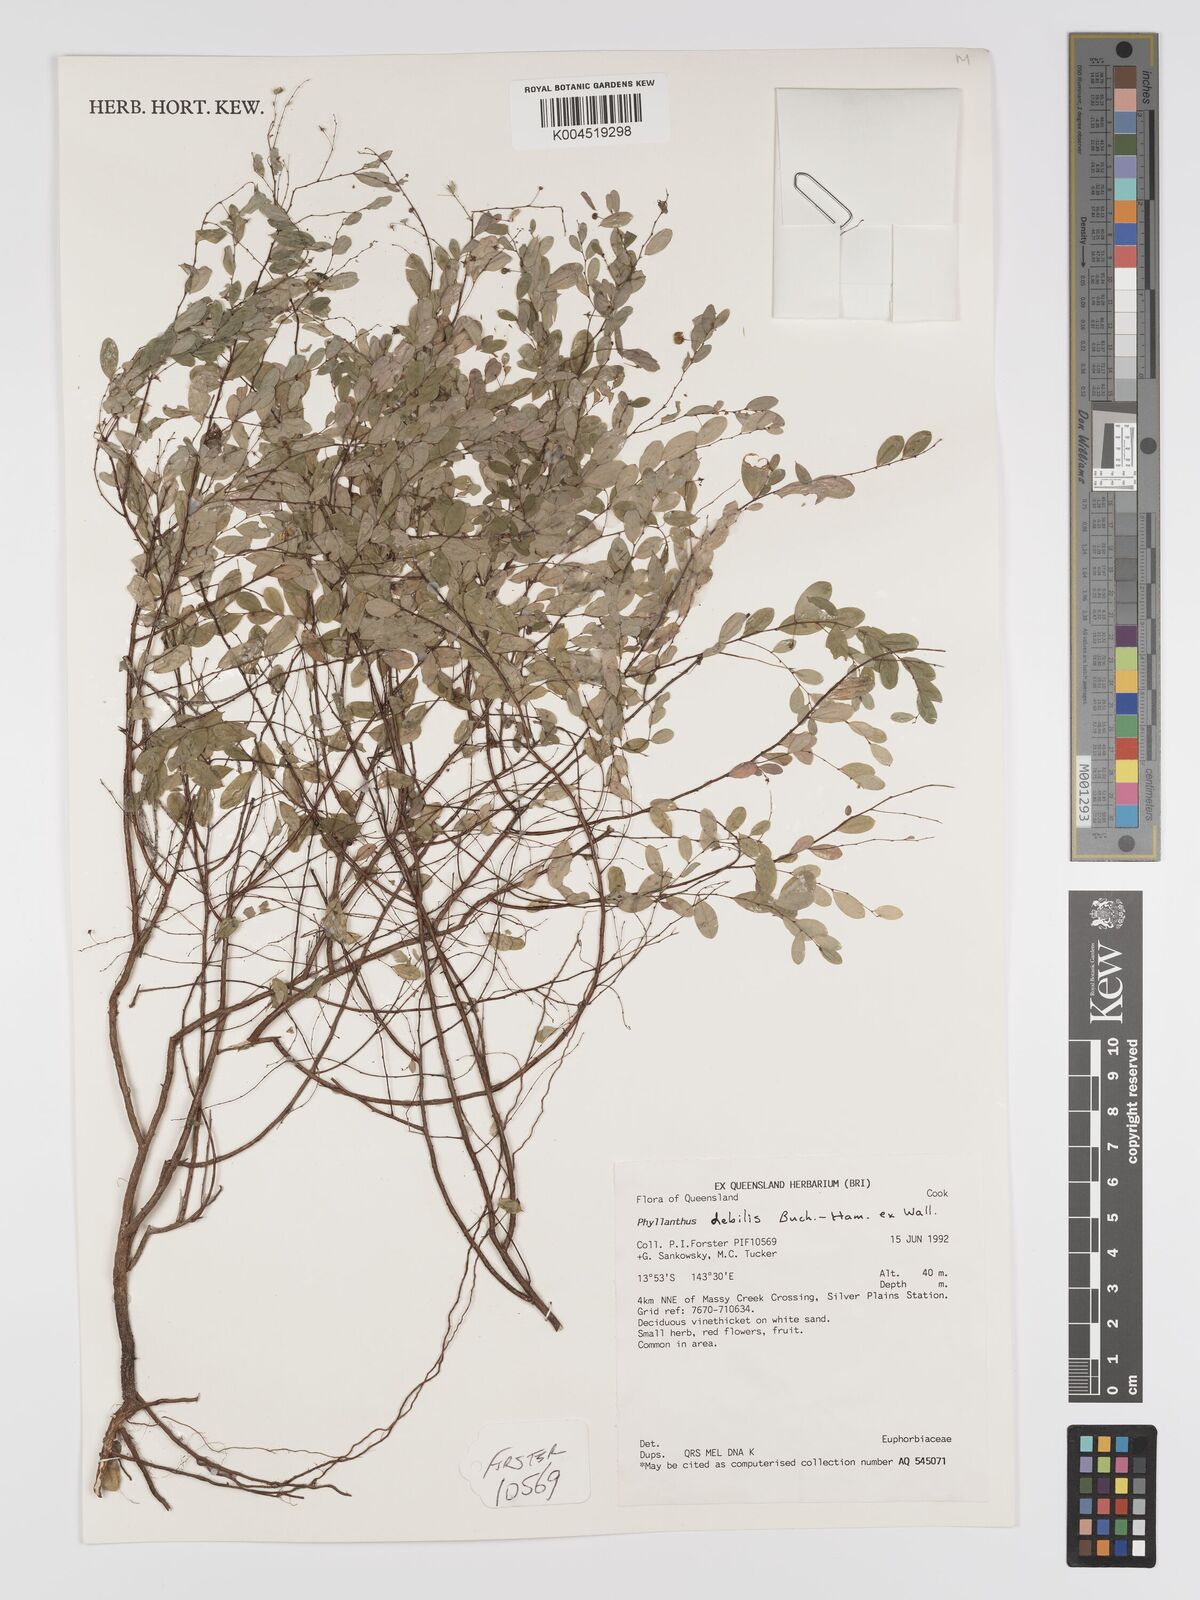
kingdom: Plantae
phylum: Tracheophyta
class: Magnoliopsida
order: Malpighiales
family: Phyllanthaceae
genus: Phyllanthus
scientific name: Phyllanthus
